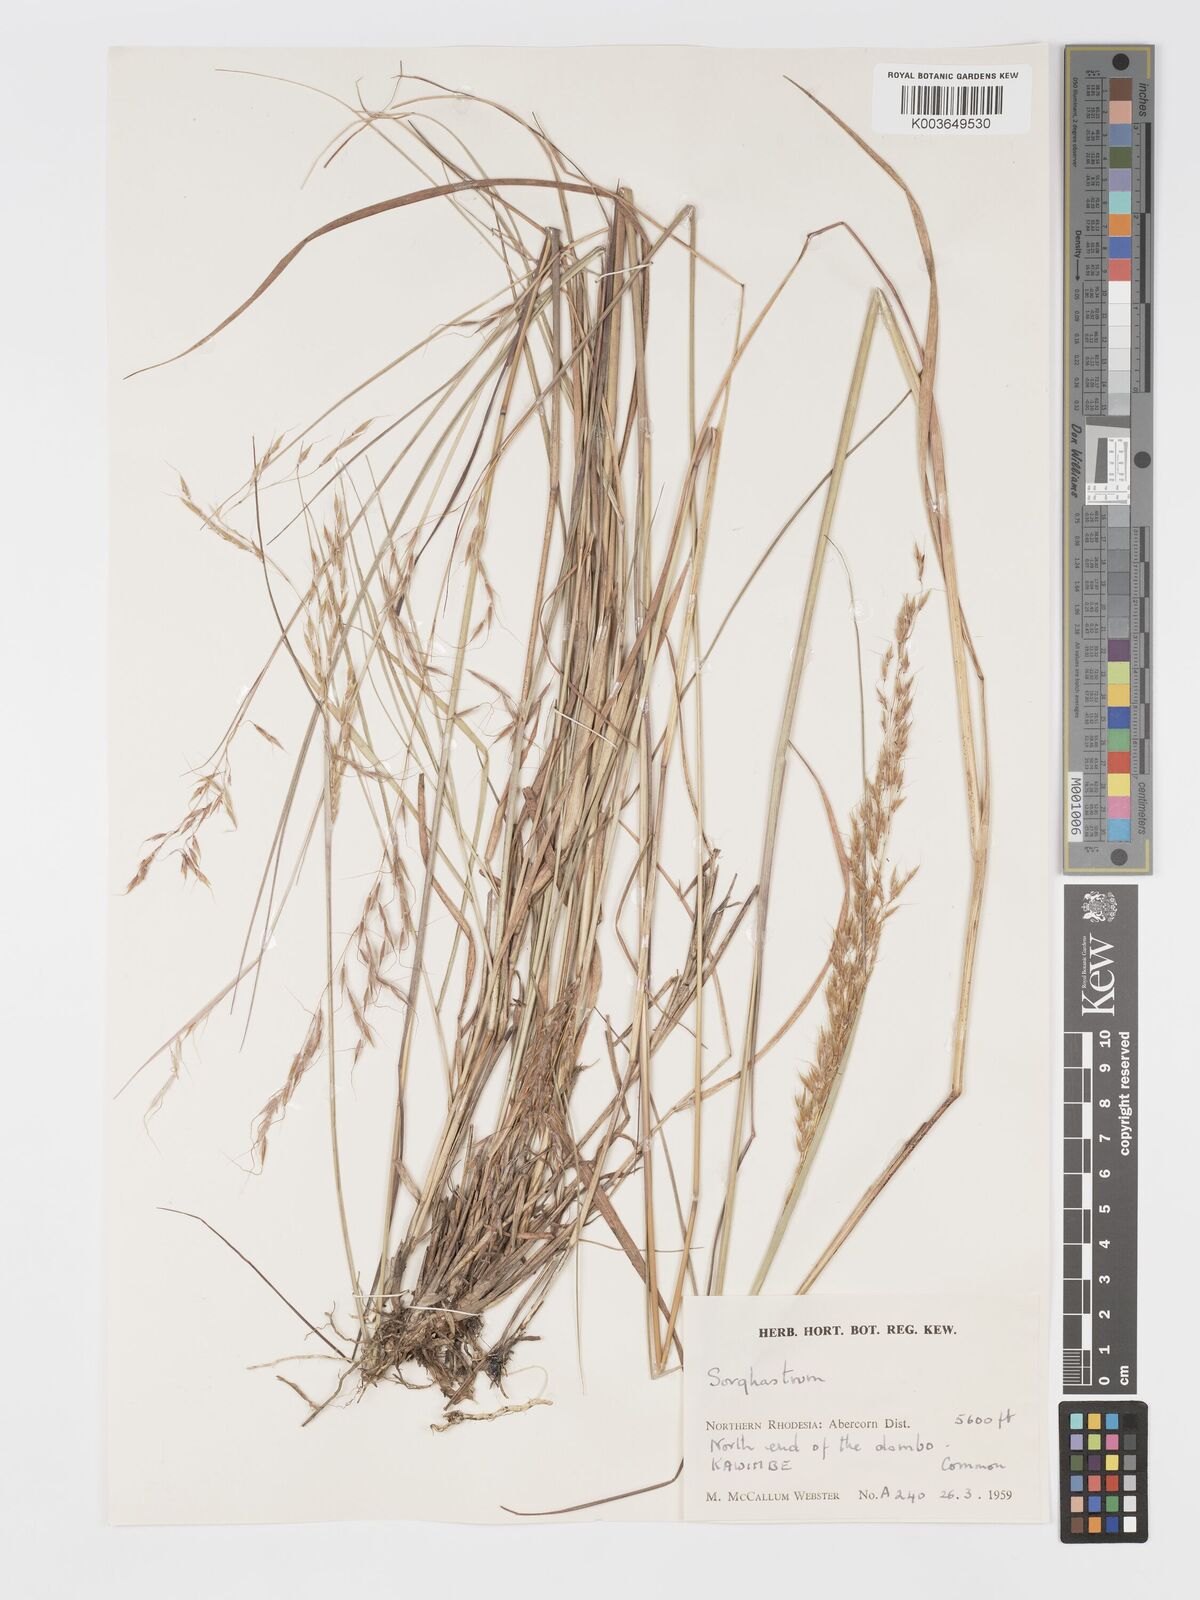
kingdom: Plantae
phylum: Tracheophyta
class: Liliopsida
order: Poales
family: Poaceae
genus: Sorghastrum
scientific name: Sorghastrum nudipes
